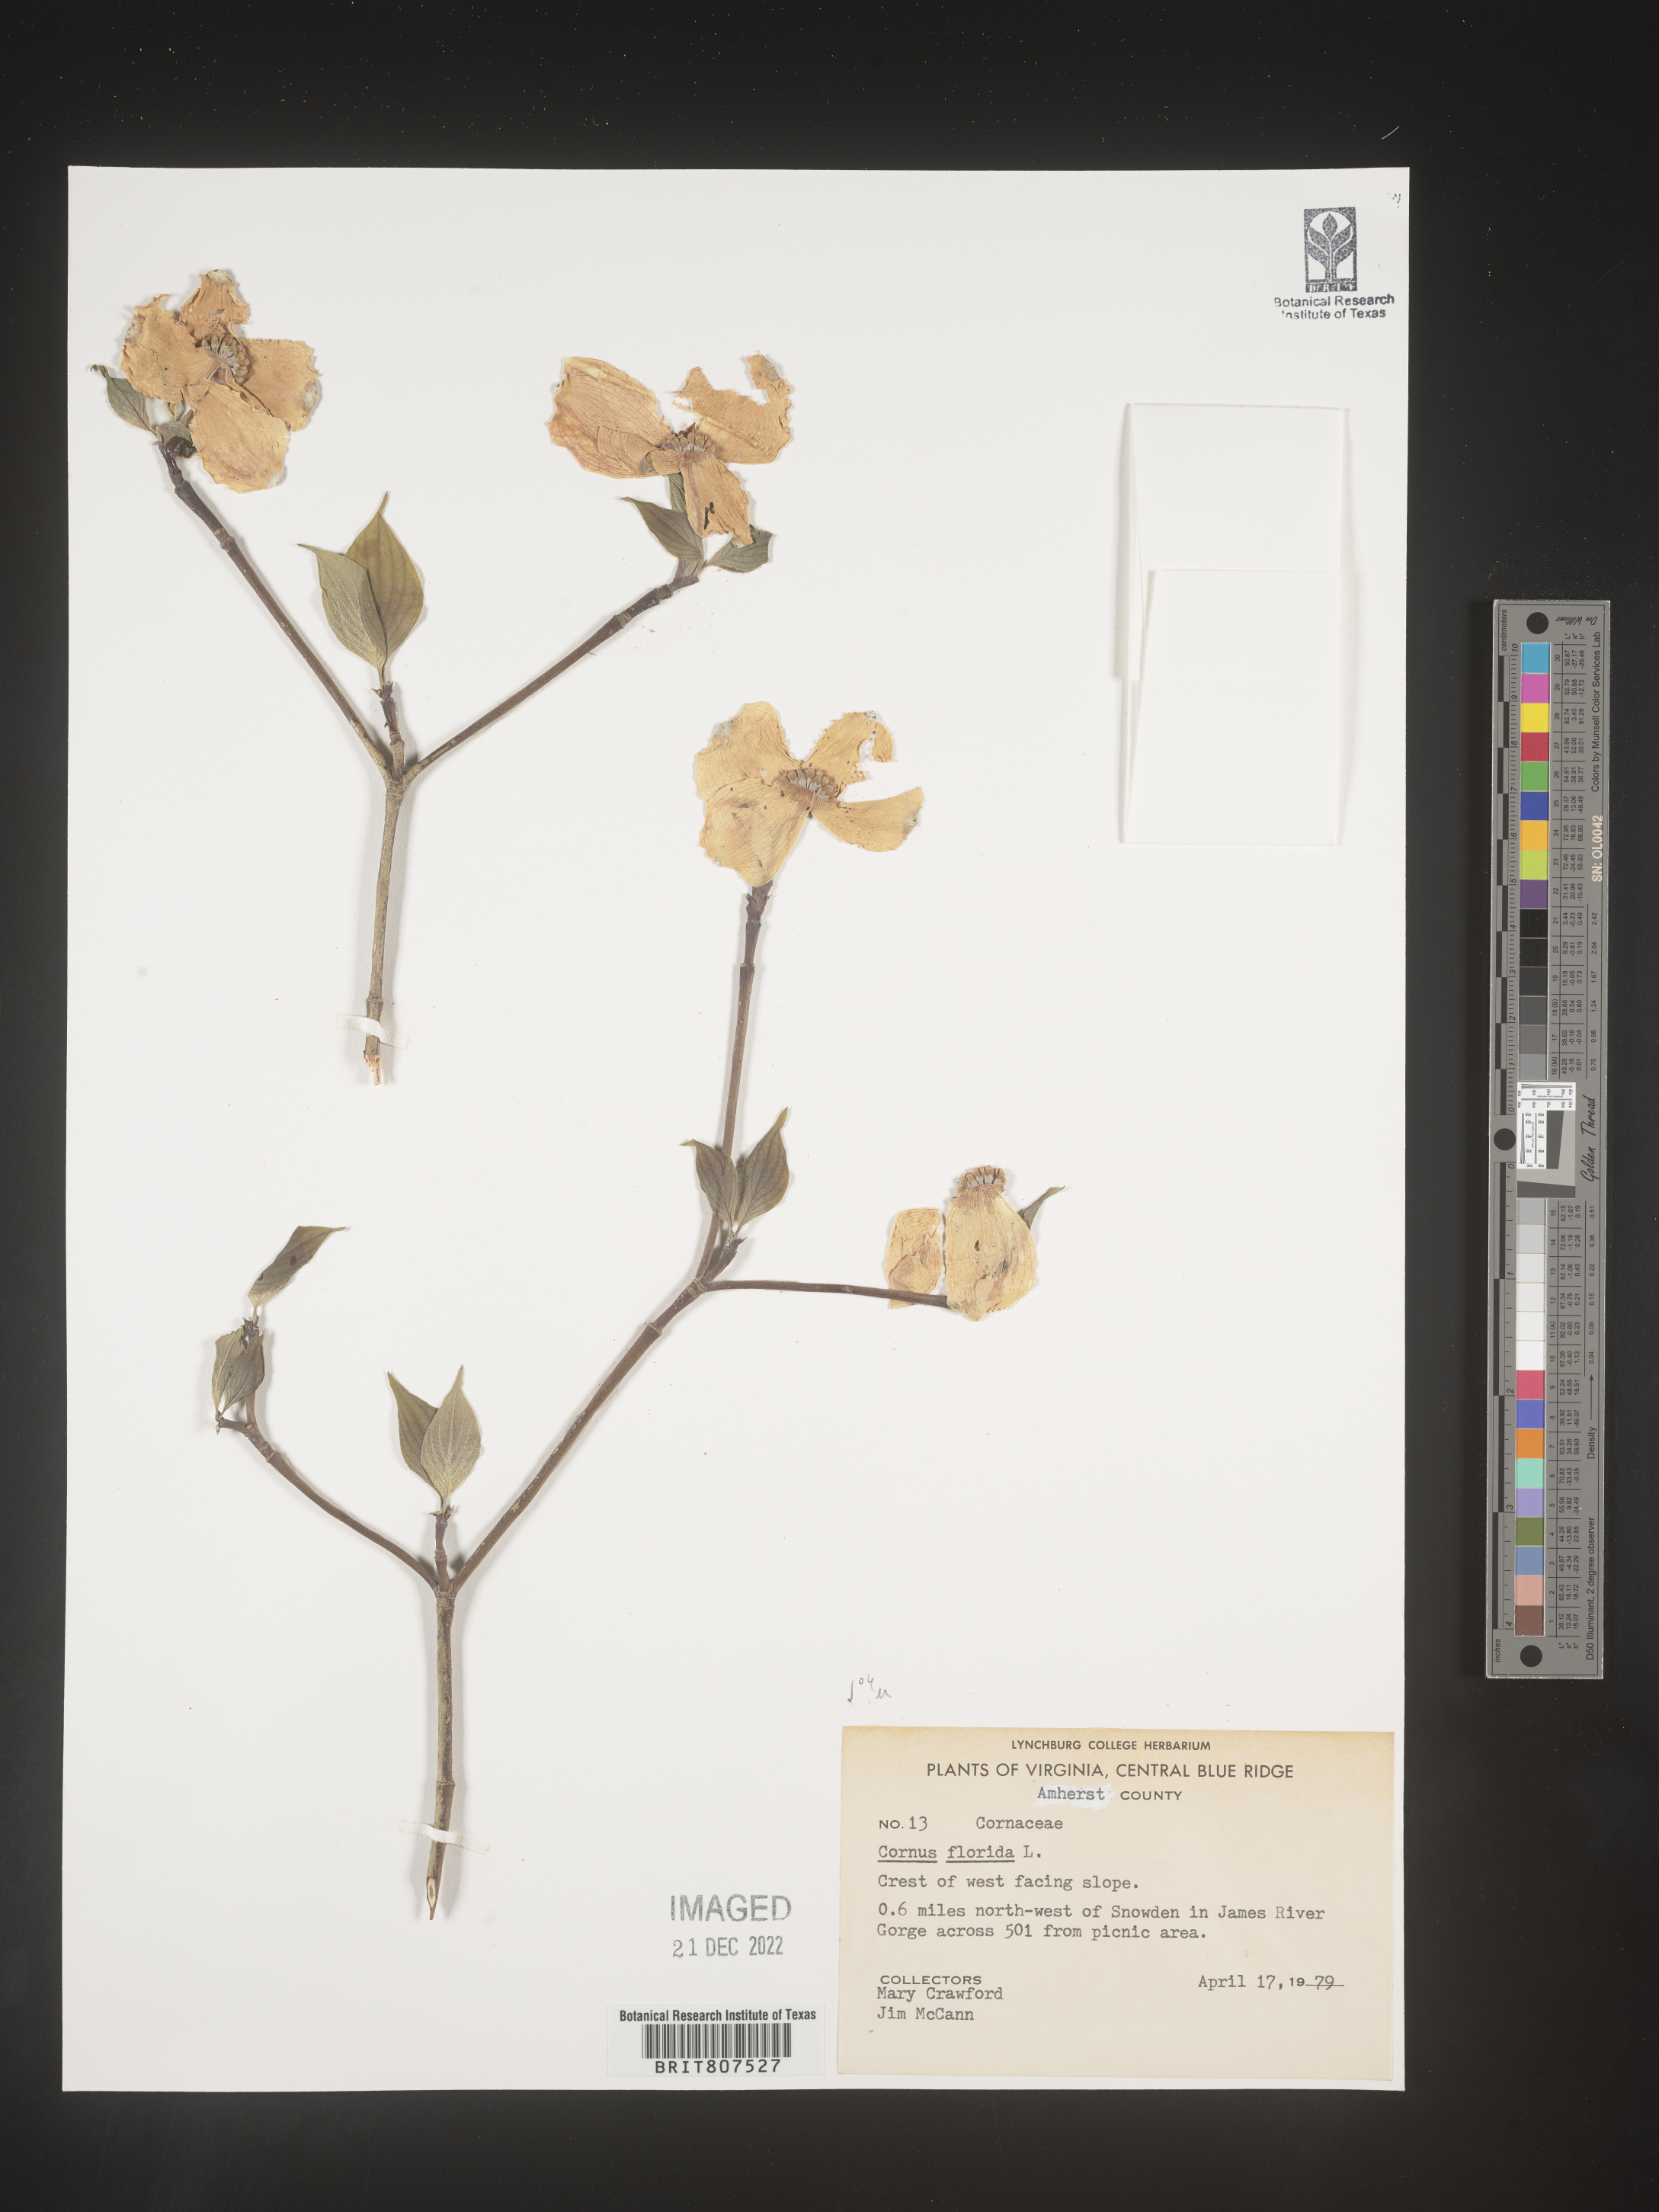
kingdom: Plantae
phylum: Tracheophyta
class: Magnoliopsida
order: Cornales
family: Cornaceae
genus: Cornus
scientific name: Cornus florida
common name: Flowering dogwood
